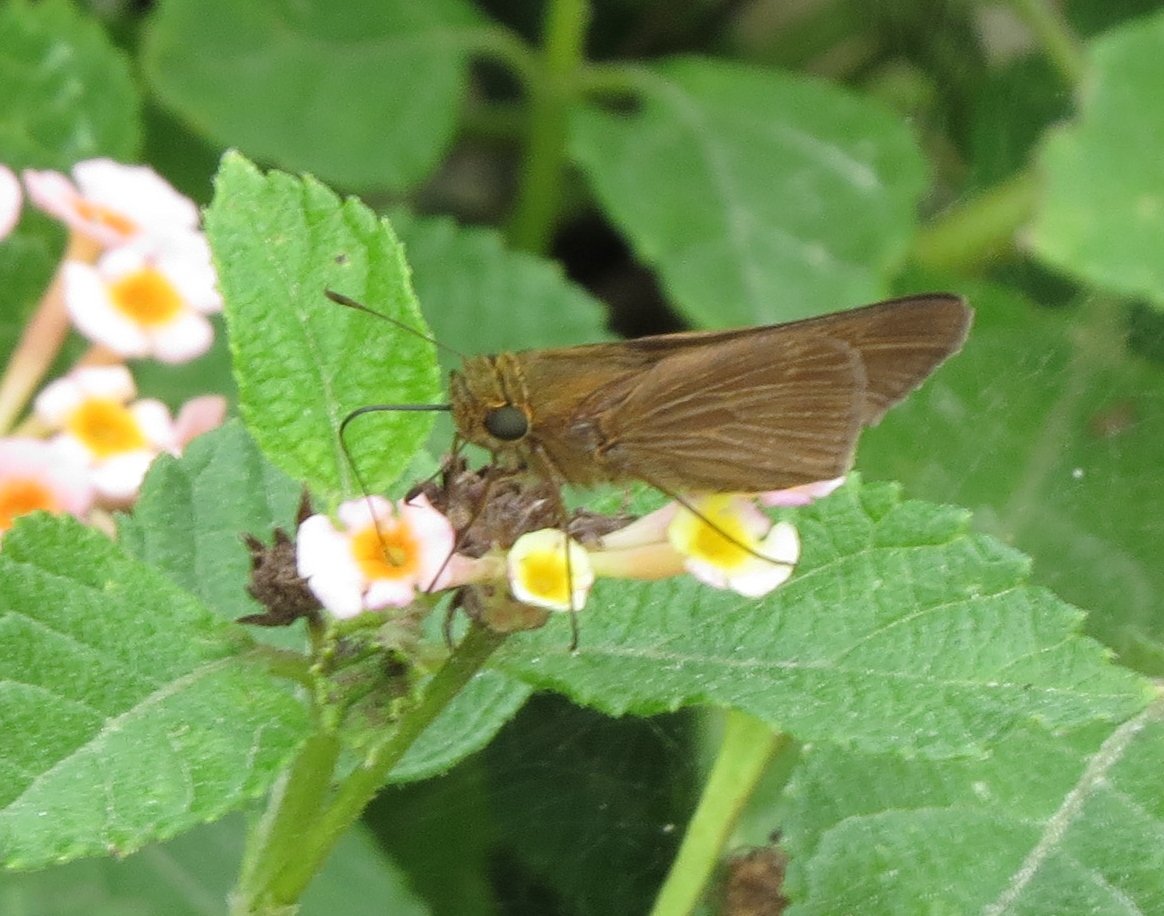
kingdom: Animalia
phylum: Arthropoda
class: Insecta
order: Lepidoptera
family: Hesperiidae
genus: Panoquina
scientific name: Panoquina ocola
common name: Ocola Skipper
